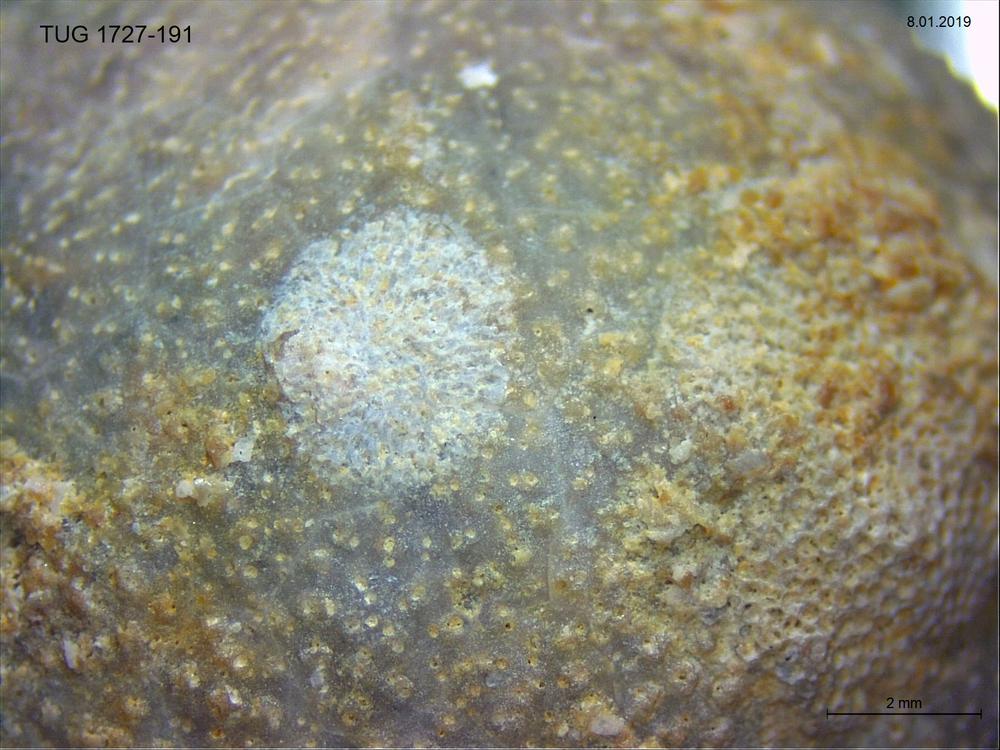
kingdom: Animalia
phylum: Bryozoa
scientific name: Bryozoa
